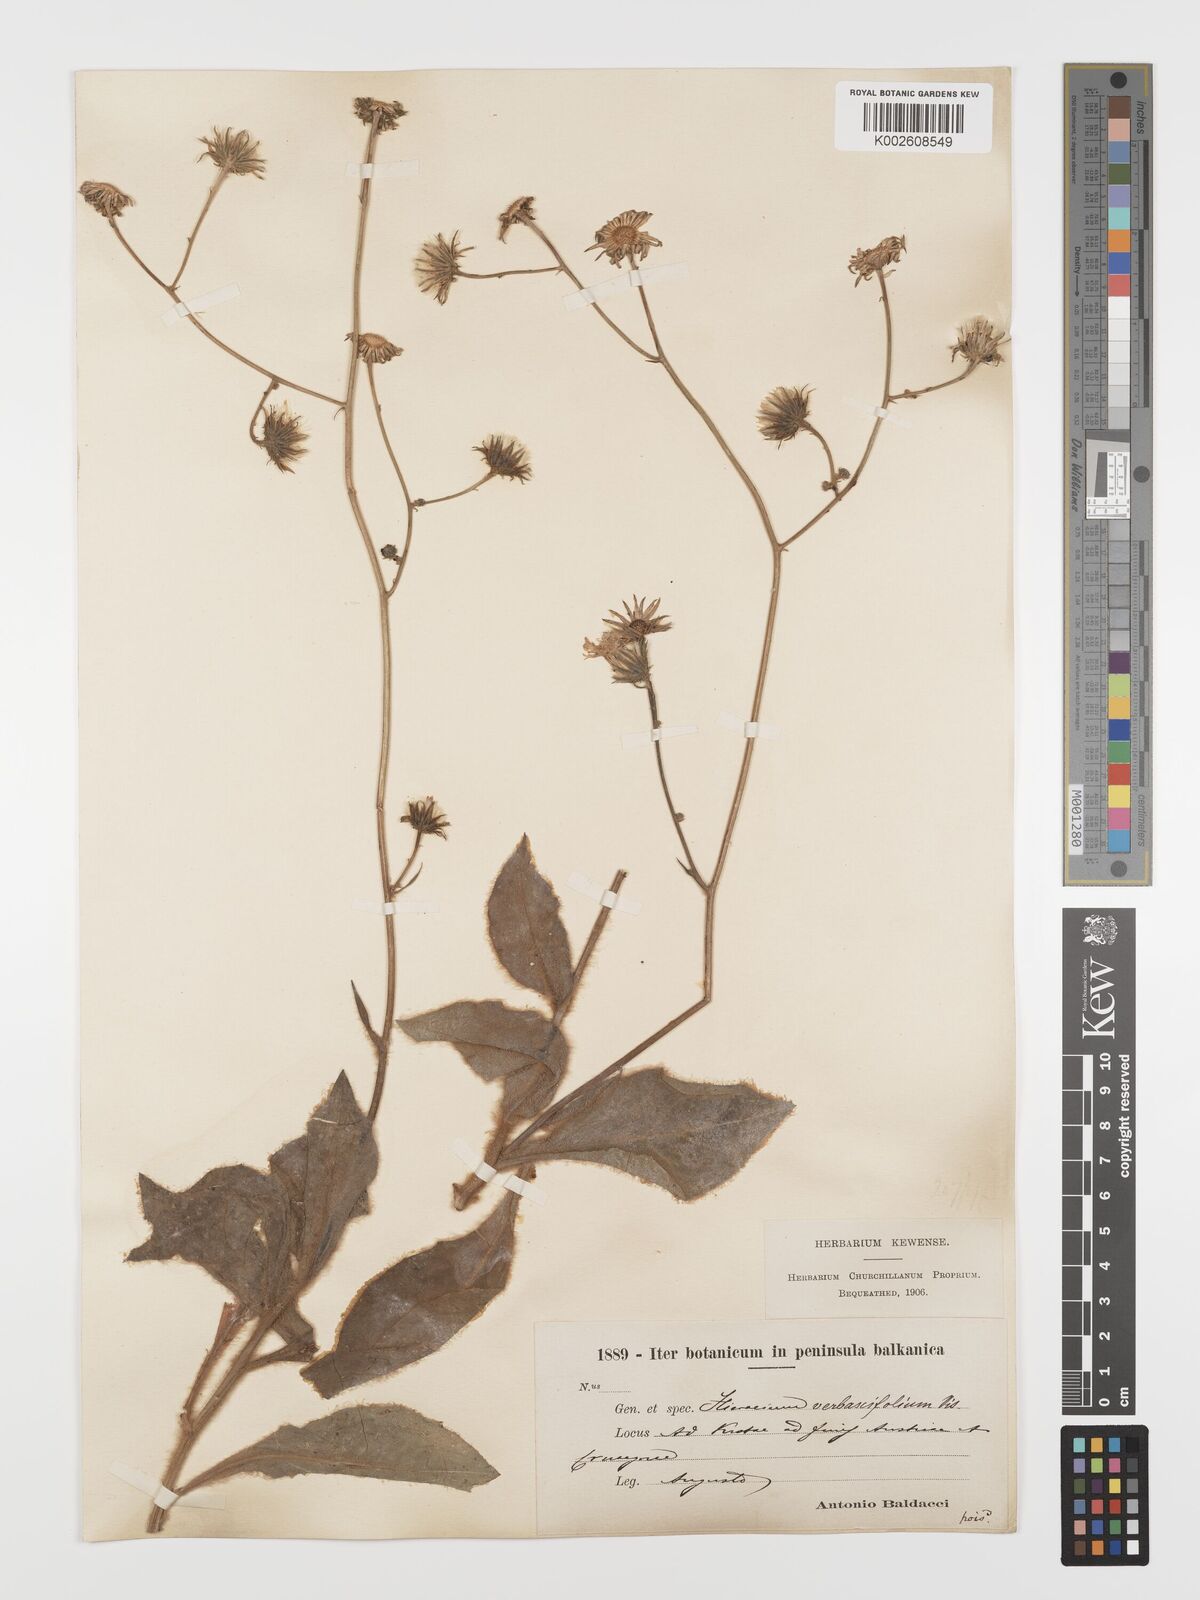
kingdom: Plantae
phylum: Tracheophyta
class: Magnoliopsida
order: Asterales
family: Asteraceae
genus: Hieracium
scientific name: Hieracium
